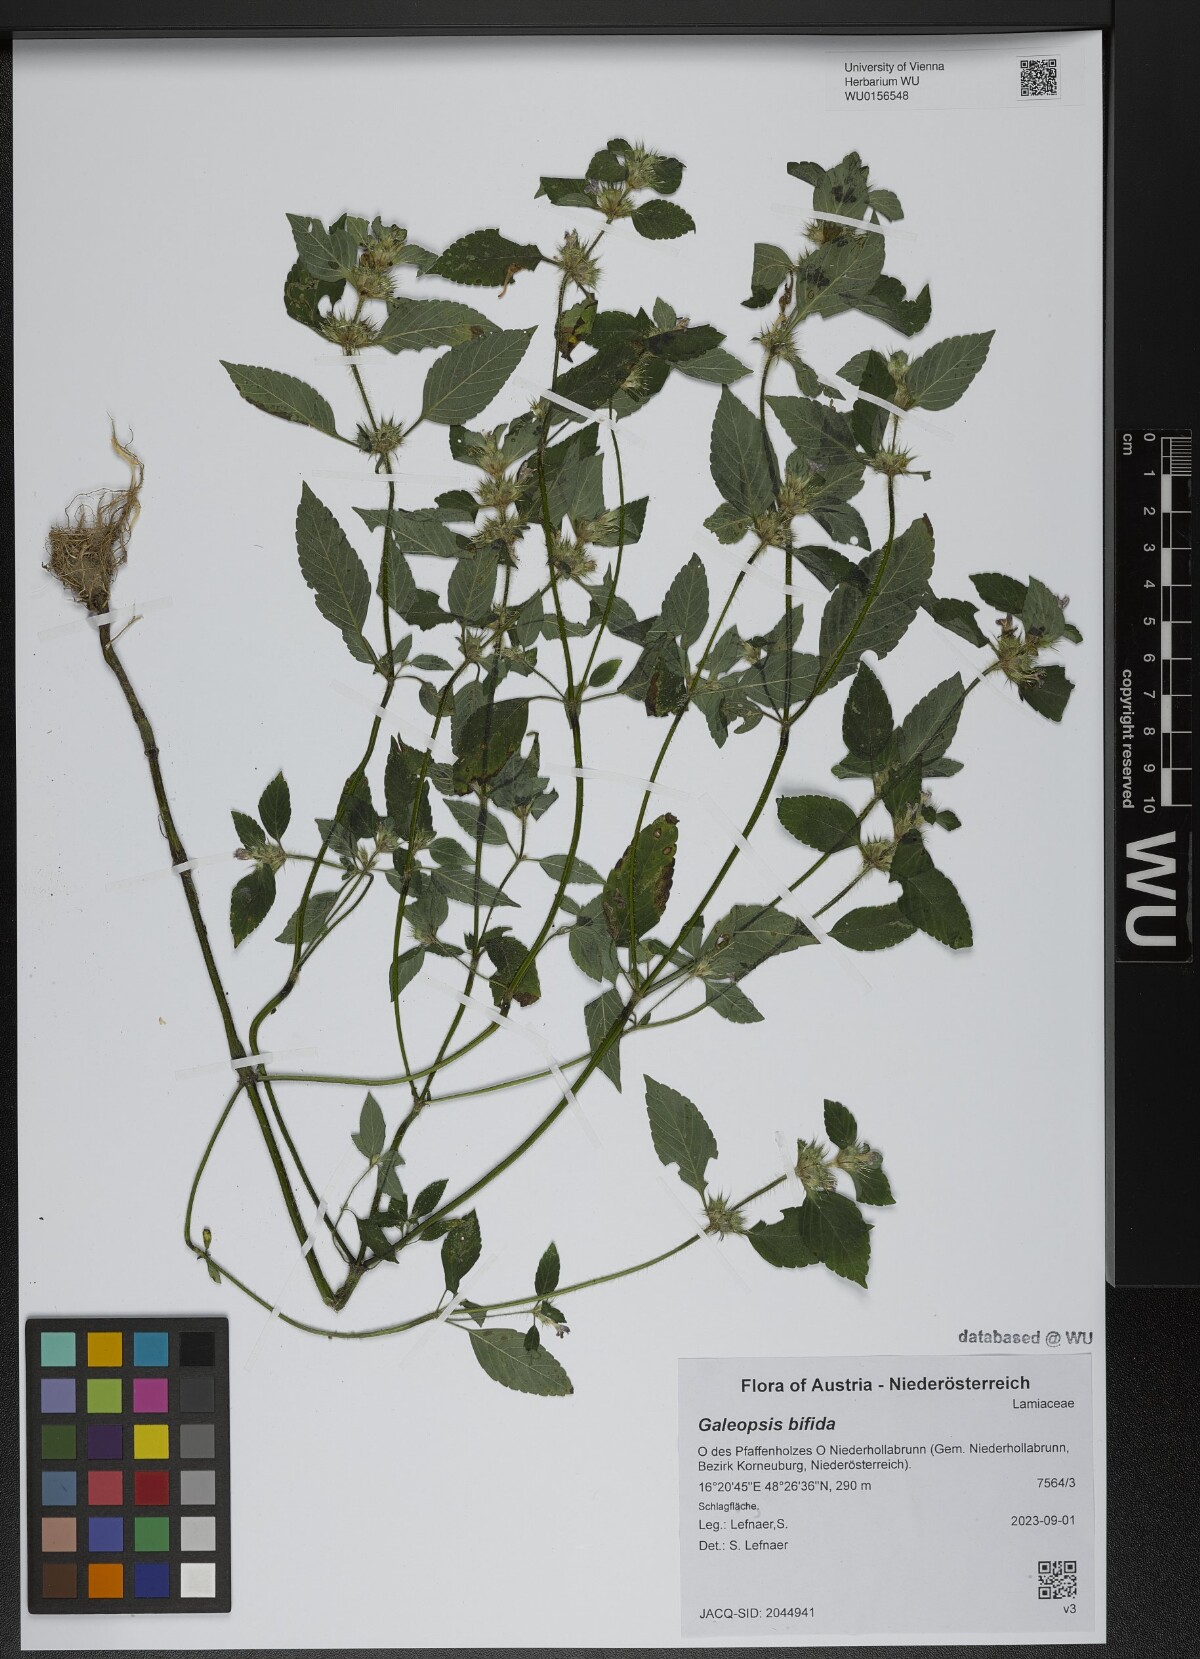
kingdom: Plantae
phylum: Tracheophyta
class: Magnoliopsida
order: Lamiales
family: Lamiaceae
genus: Galeopsis
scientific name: Galeopsis bifida
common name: Bifid hemp-nettle
